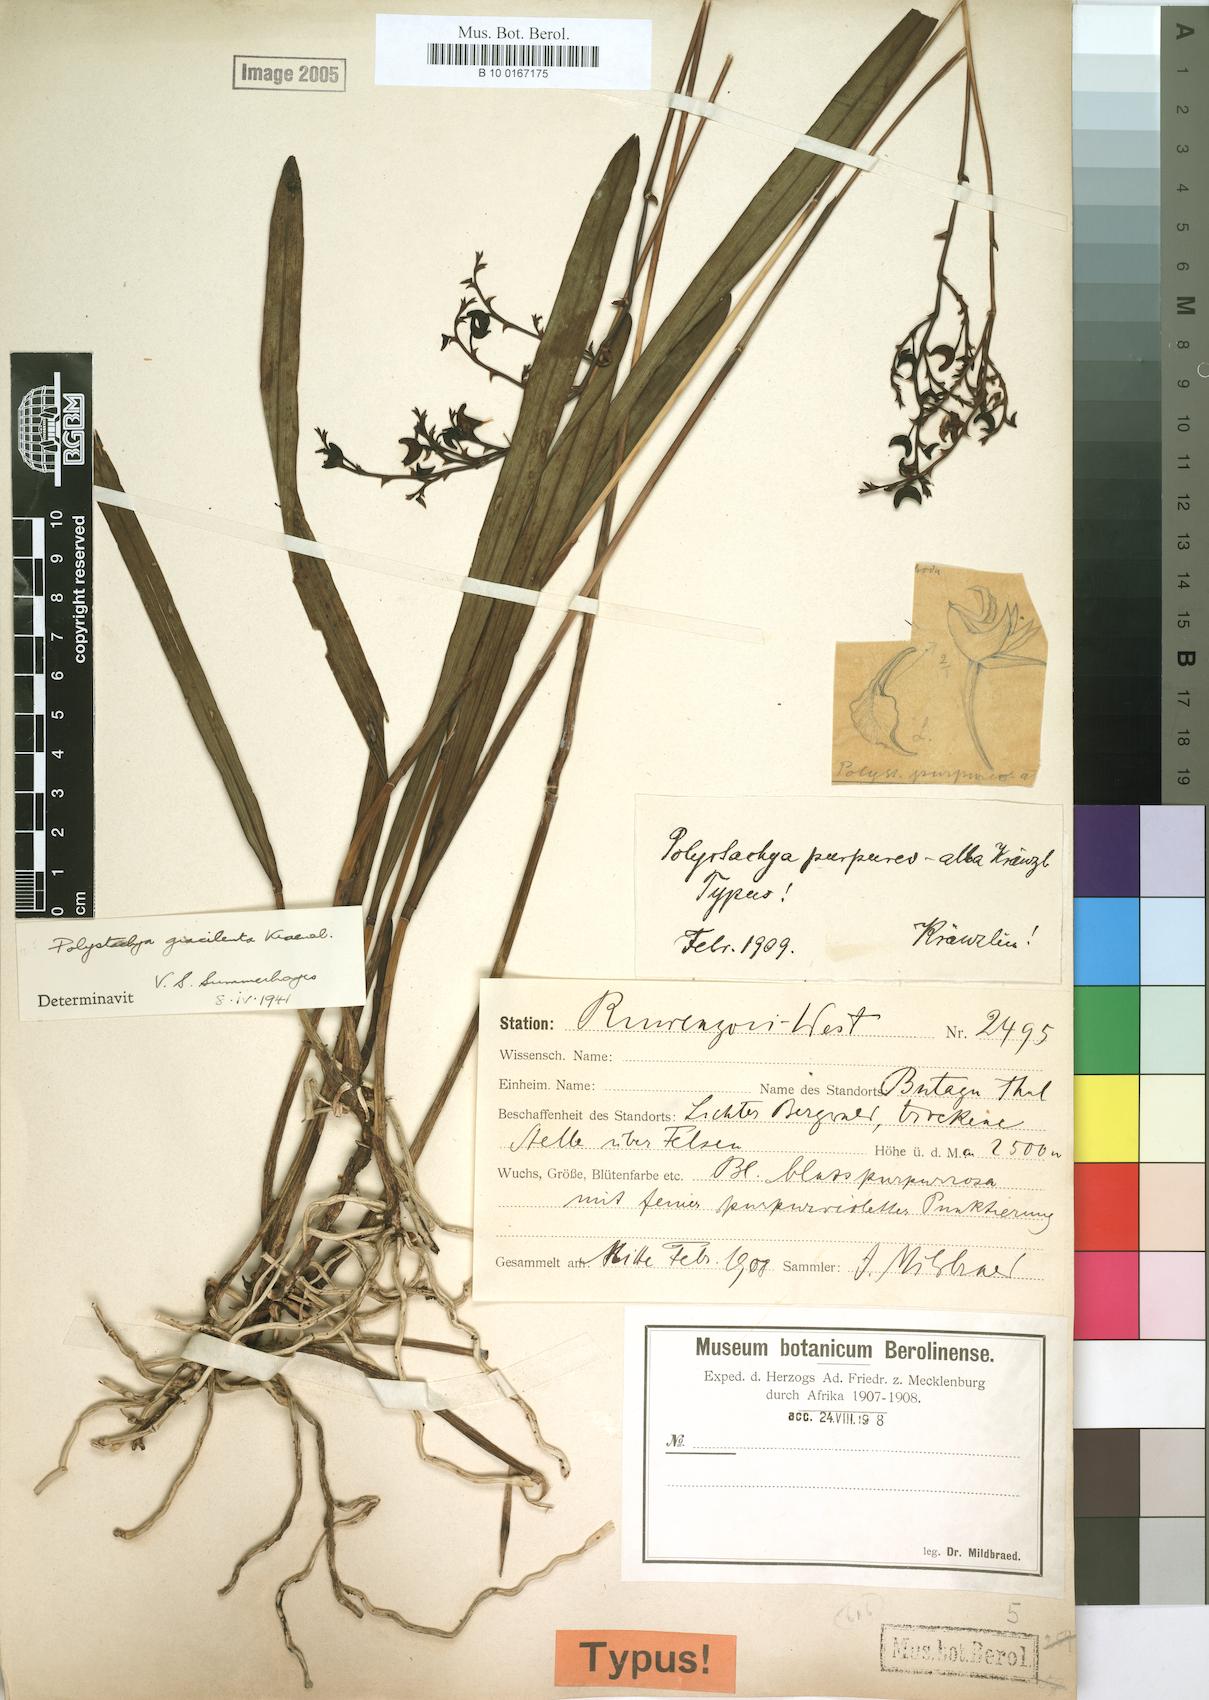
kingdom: Plantae
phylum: Tracheophyta
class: Liliopsida
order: Asparagales
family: Orchidaceae
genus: Polystachya
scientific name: Polystachya gracilenta
